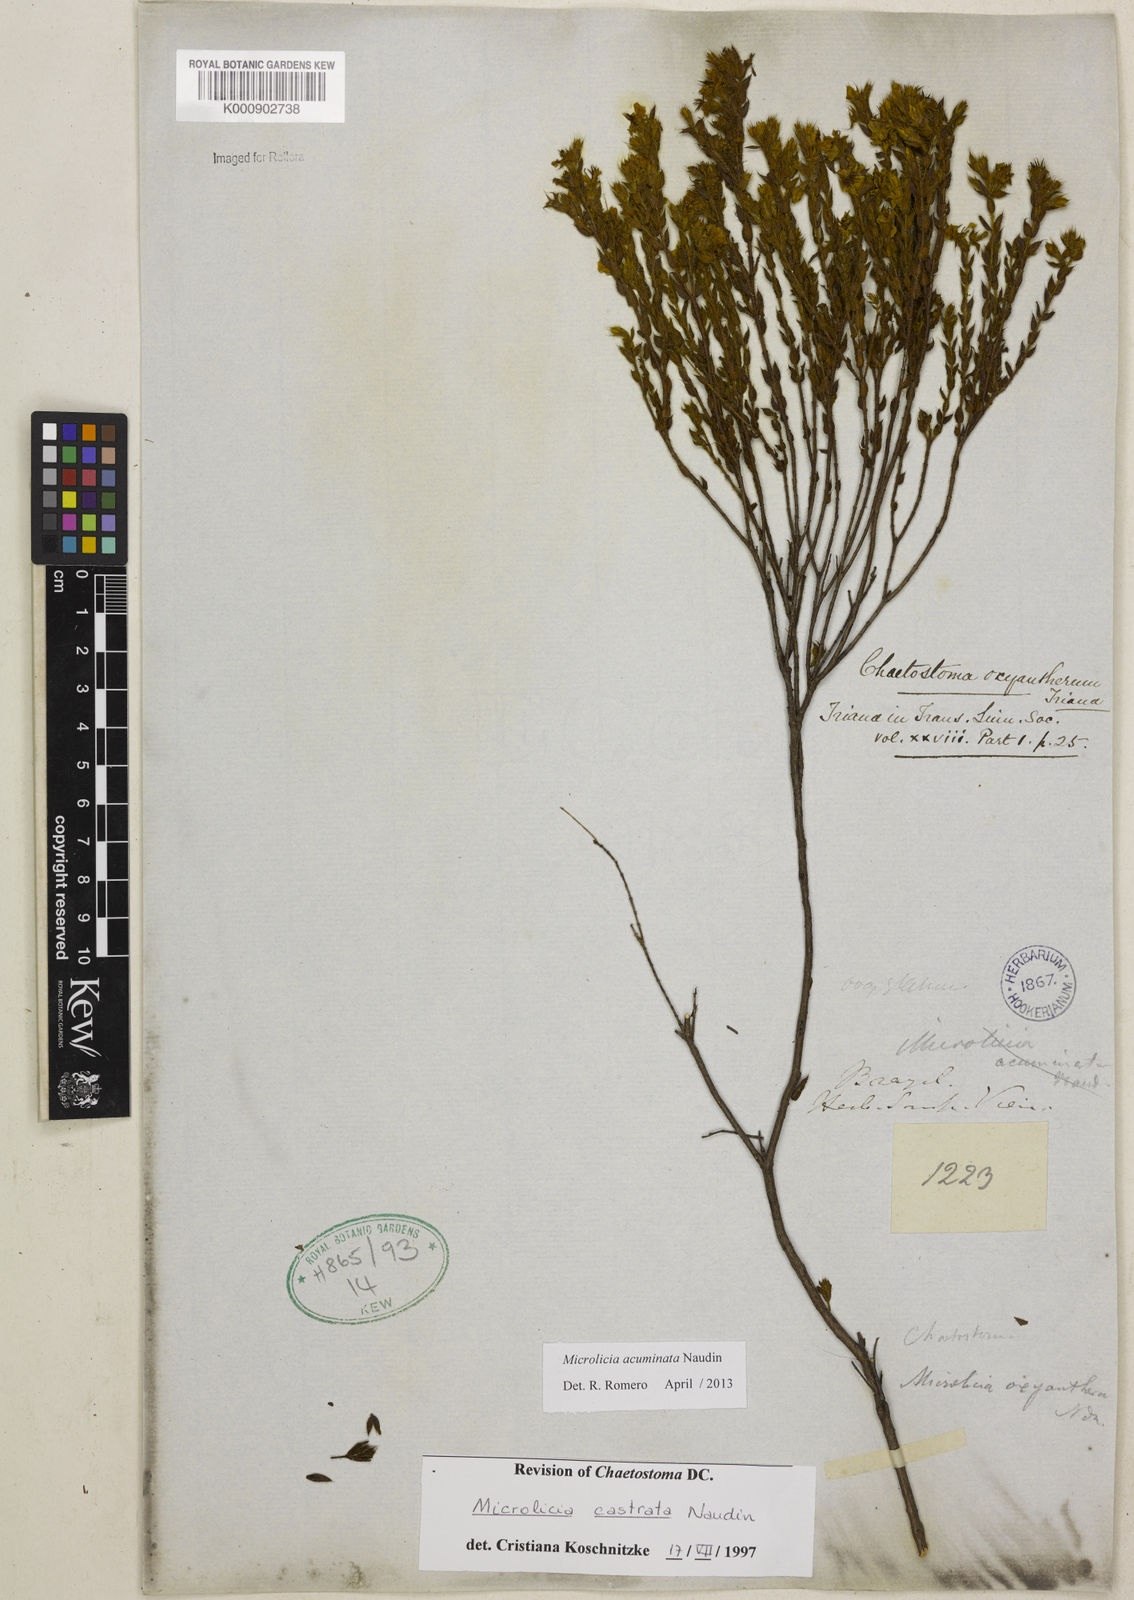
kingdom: Plantae
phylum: Tracheophyta
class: Magnoliopsida
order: Myrtales
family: Melastomataceae
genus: Microlicia
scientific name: Microlicia
